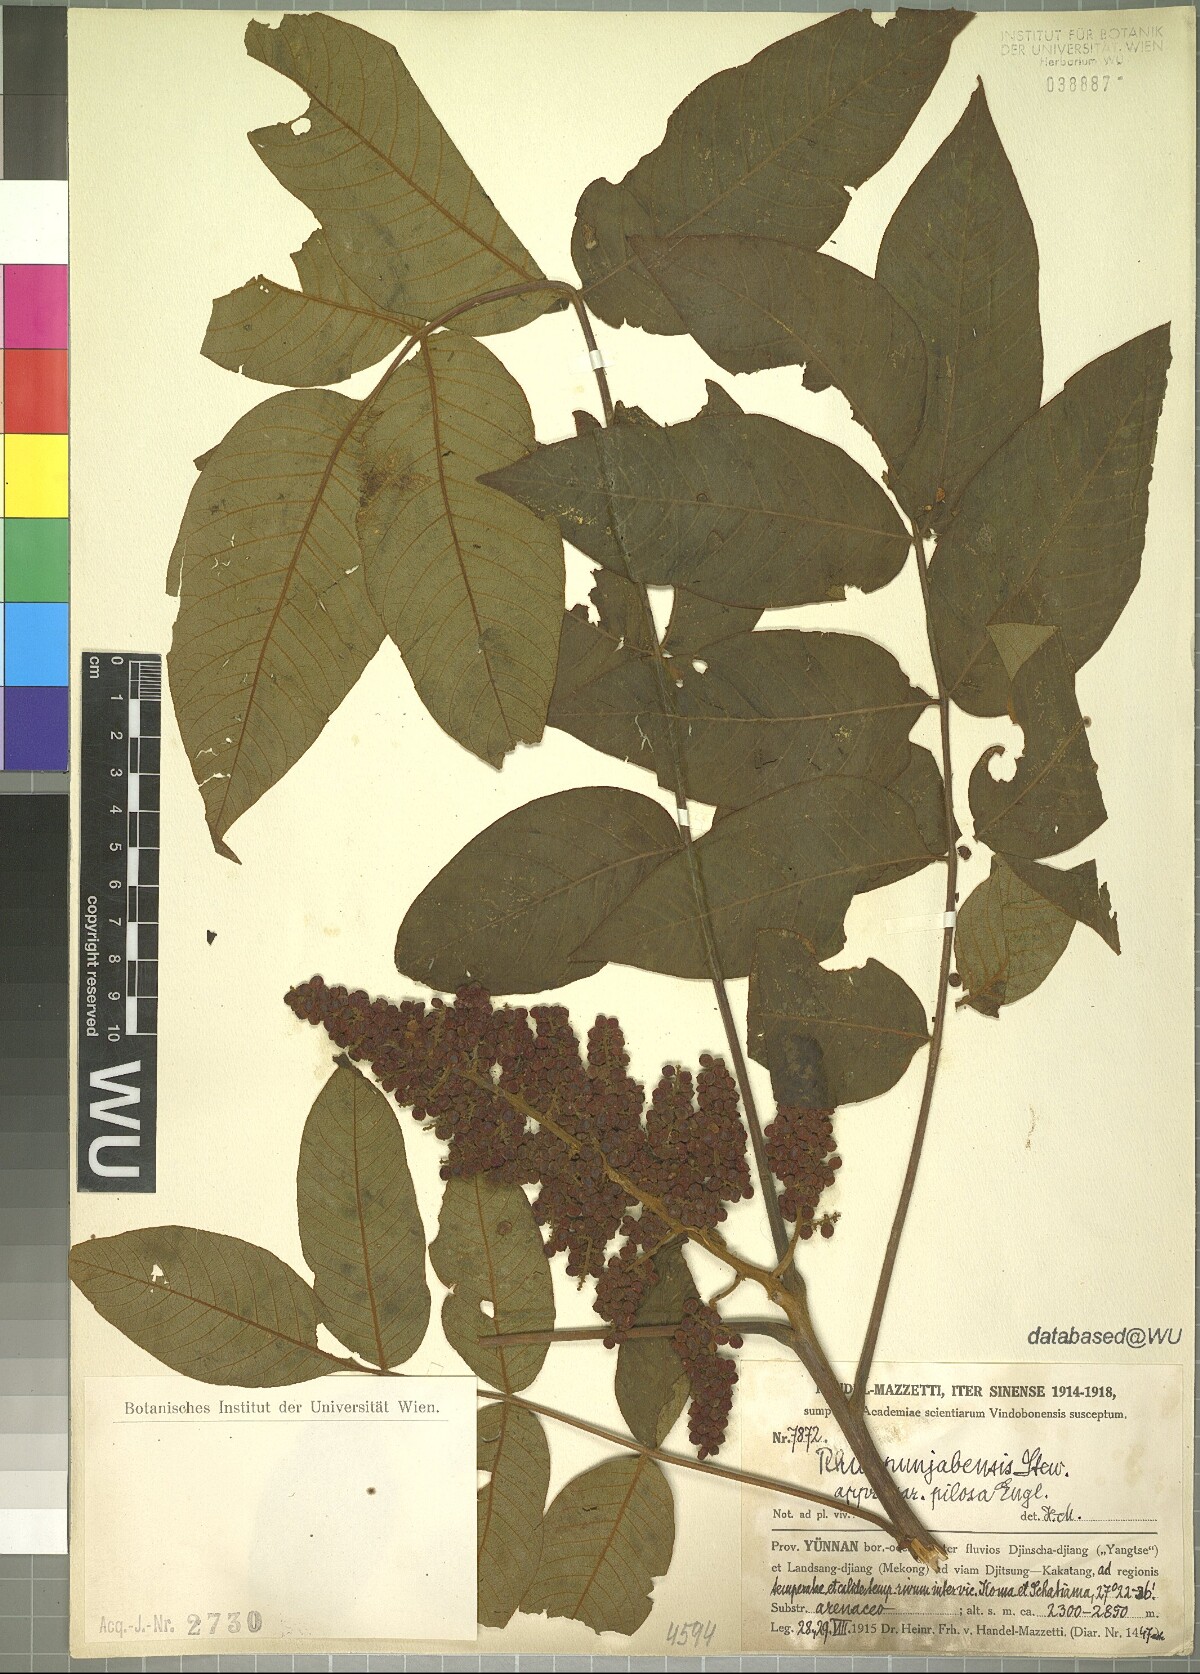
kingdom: Plantae
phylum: Tracheophyta
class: Magnoliopsida
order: Sapindales
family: Anacardiaceae
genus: Rhus
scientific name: Rhus punjabensis
